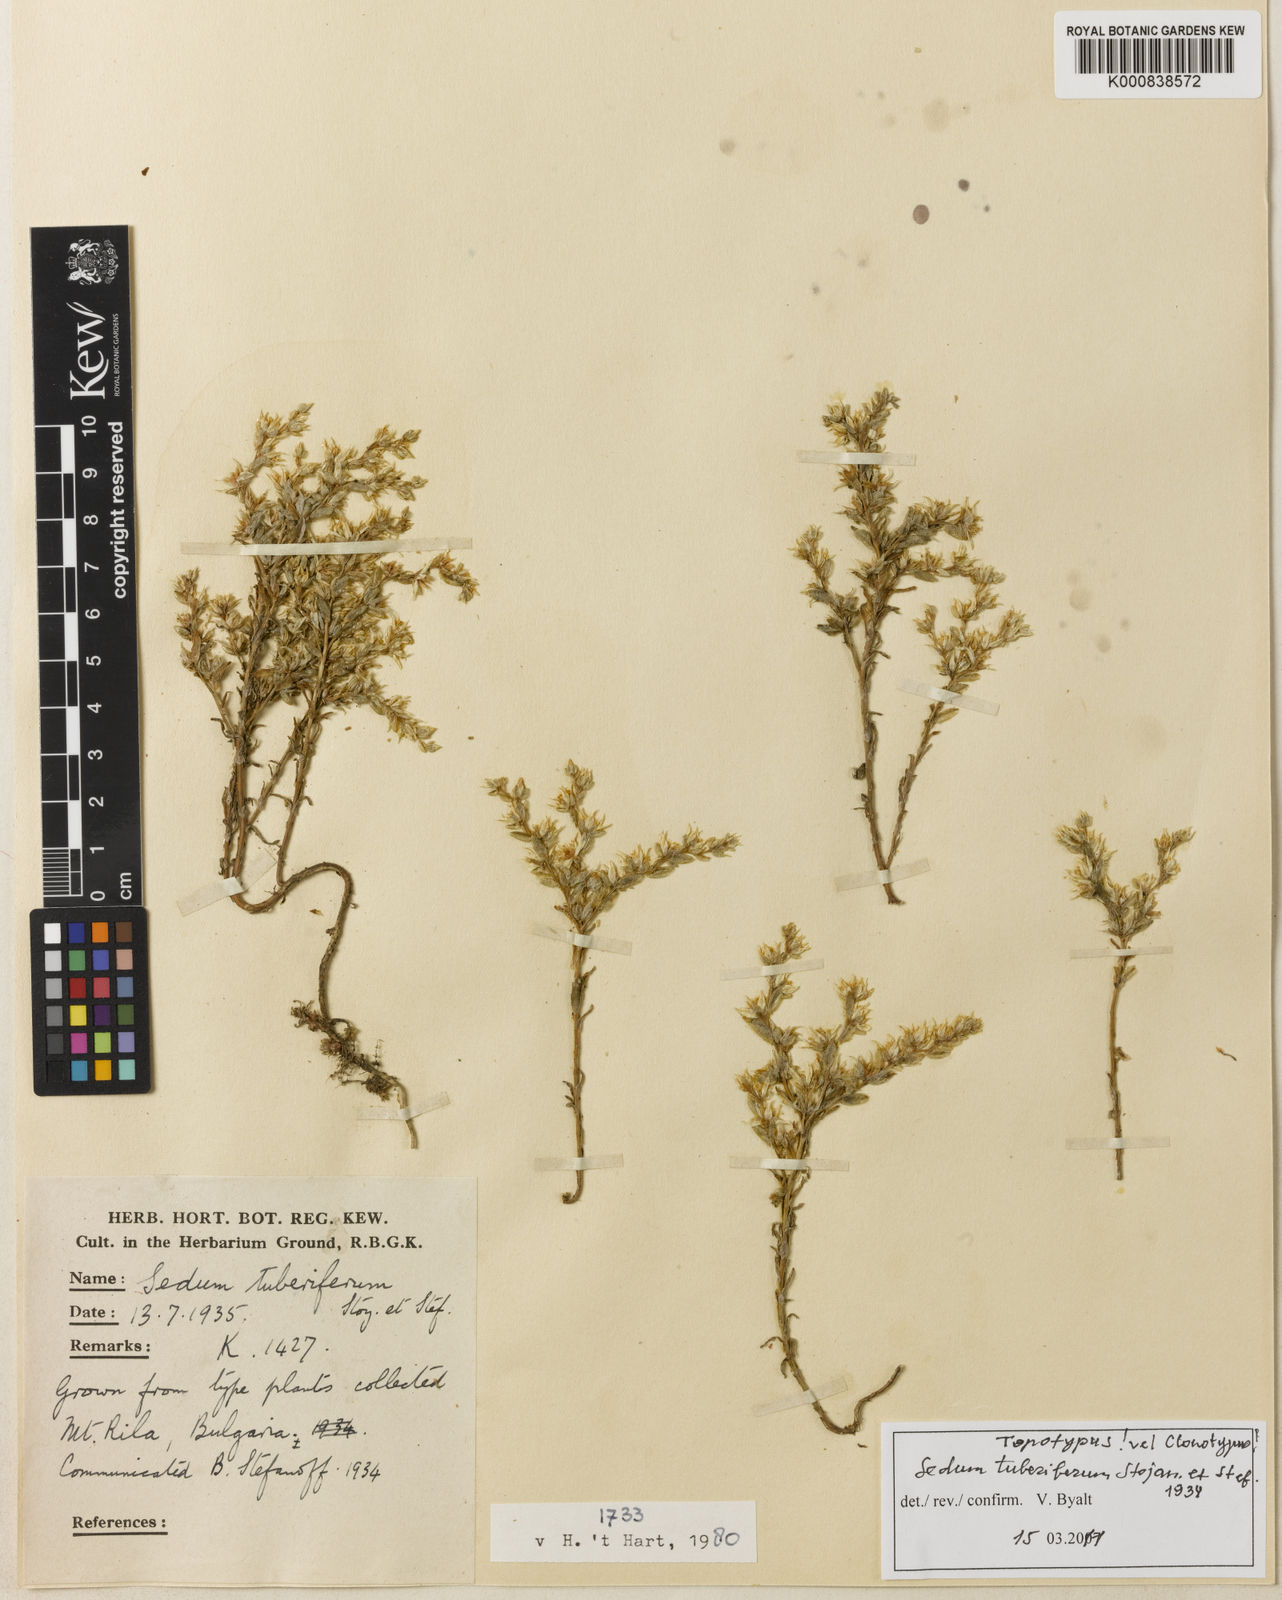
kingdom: Plantae
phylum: Tracheophyta
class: Magnoliopsida
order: Saxifragales
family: Crassulaceae
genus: Sedum
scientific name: Sedum tuberiferum
